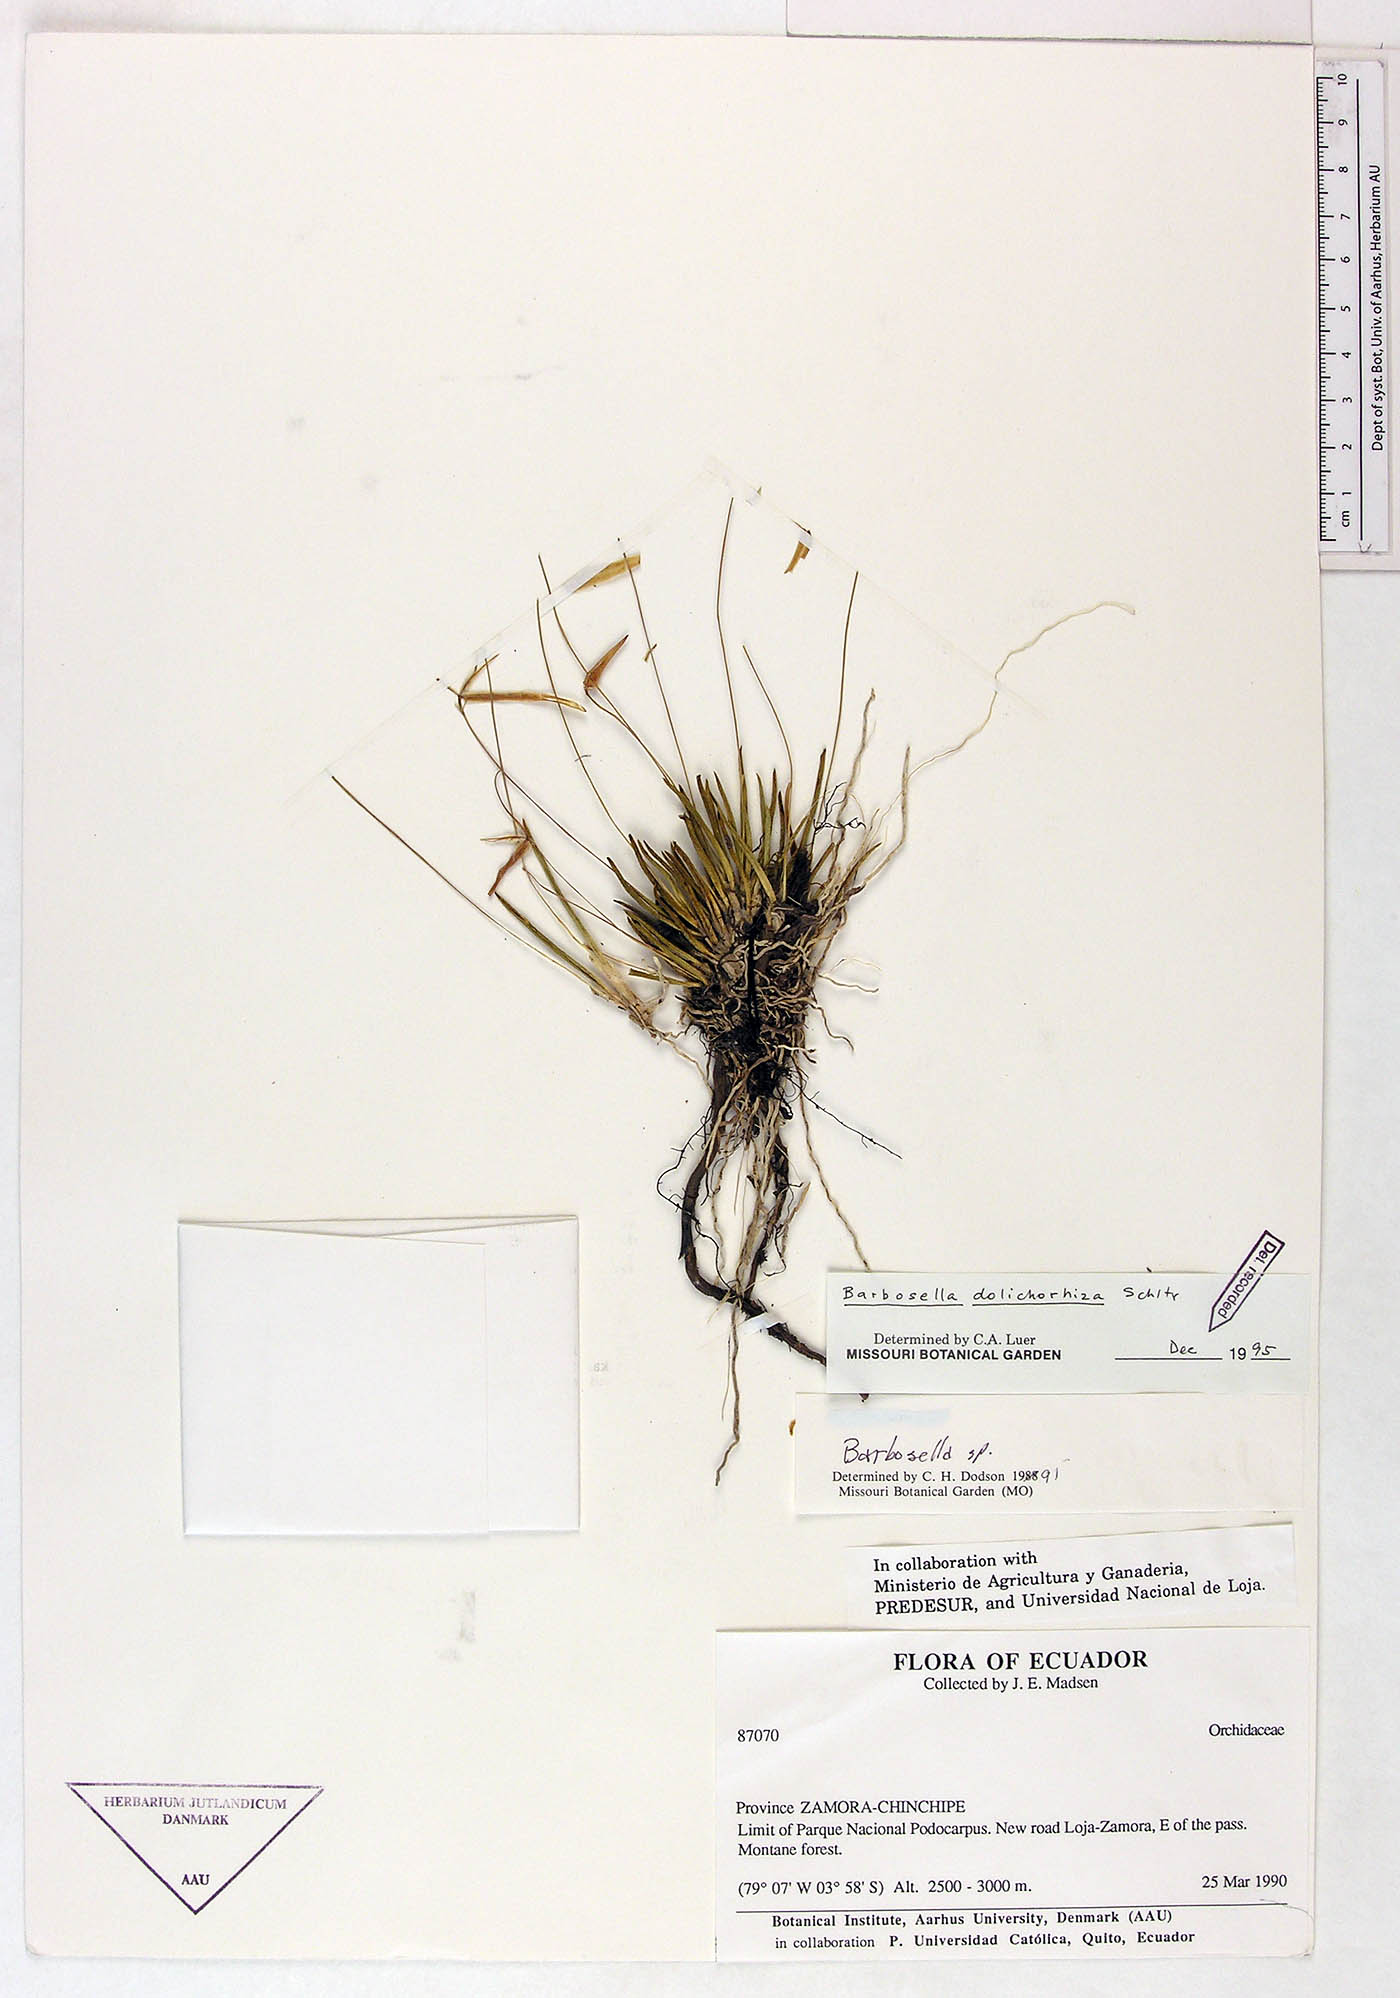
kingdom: Plantae
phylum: Tracheophyta
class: Liliopsida
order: Asparagales
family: Orchidaceae
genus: Barbosella
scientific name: Barbosella dolichorhiza
